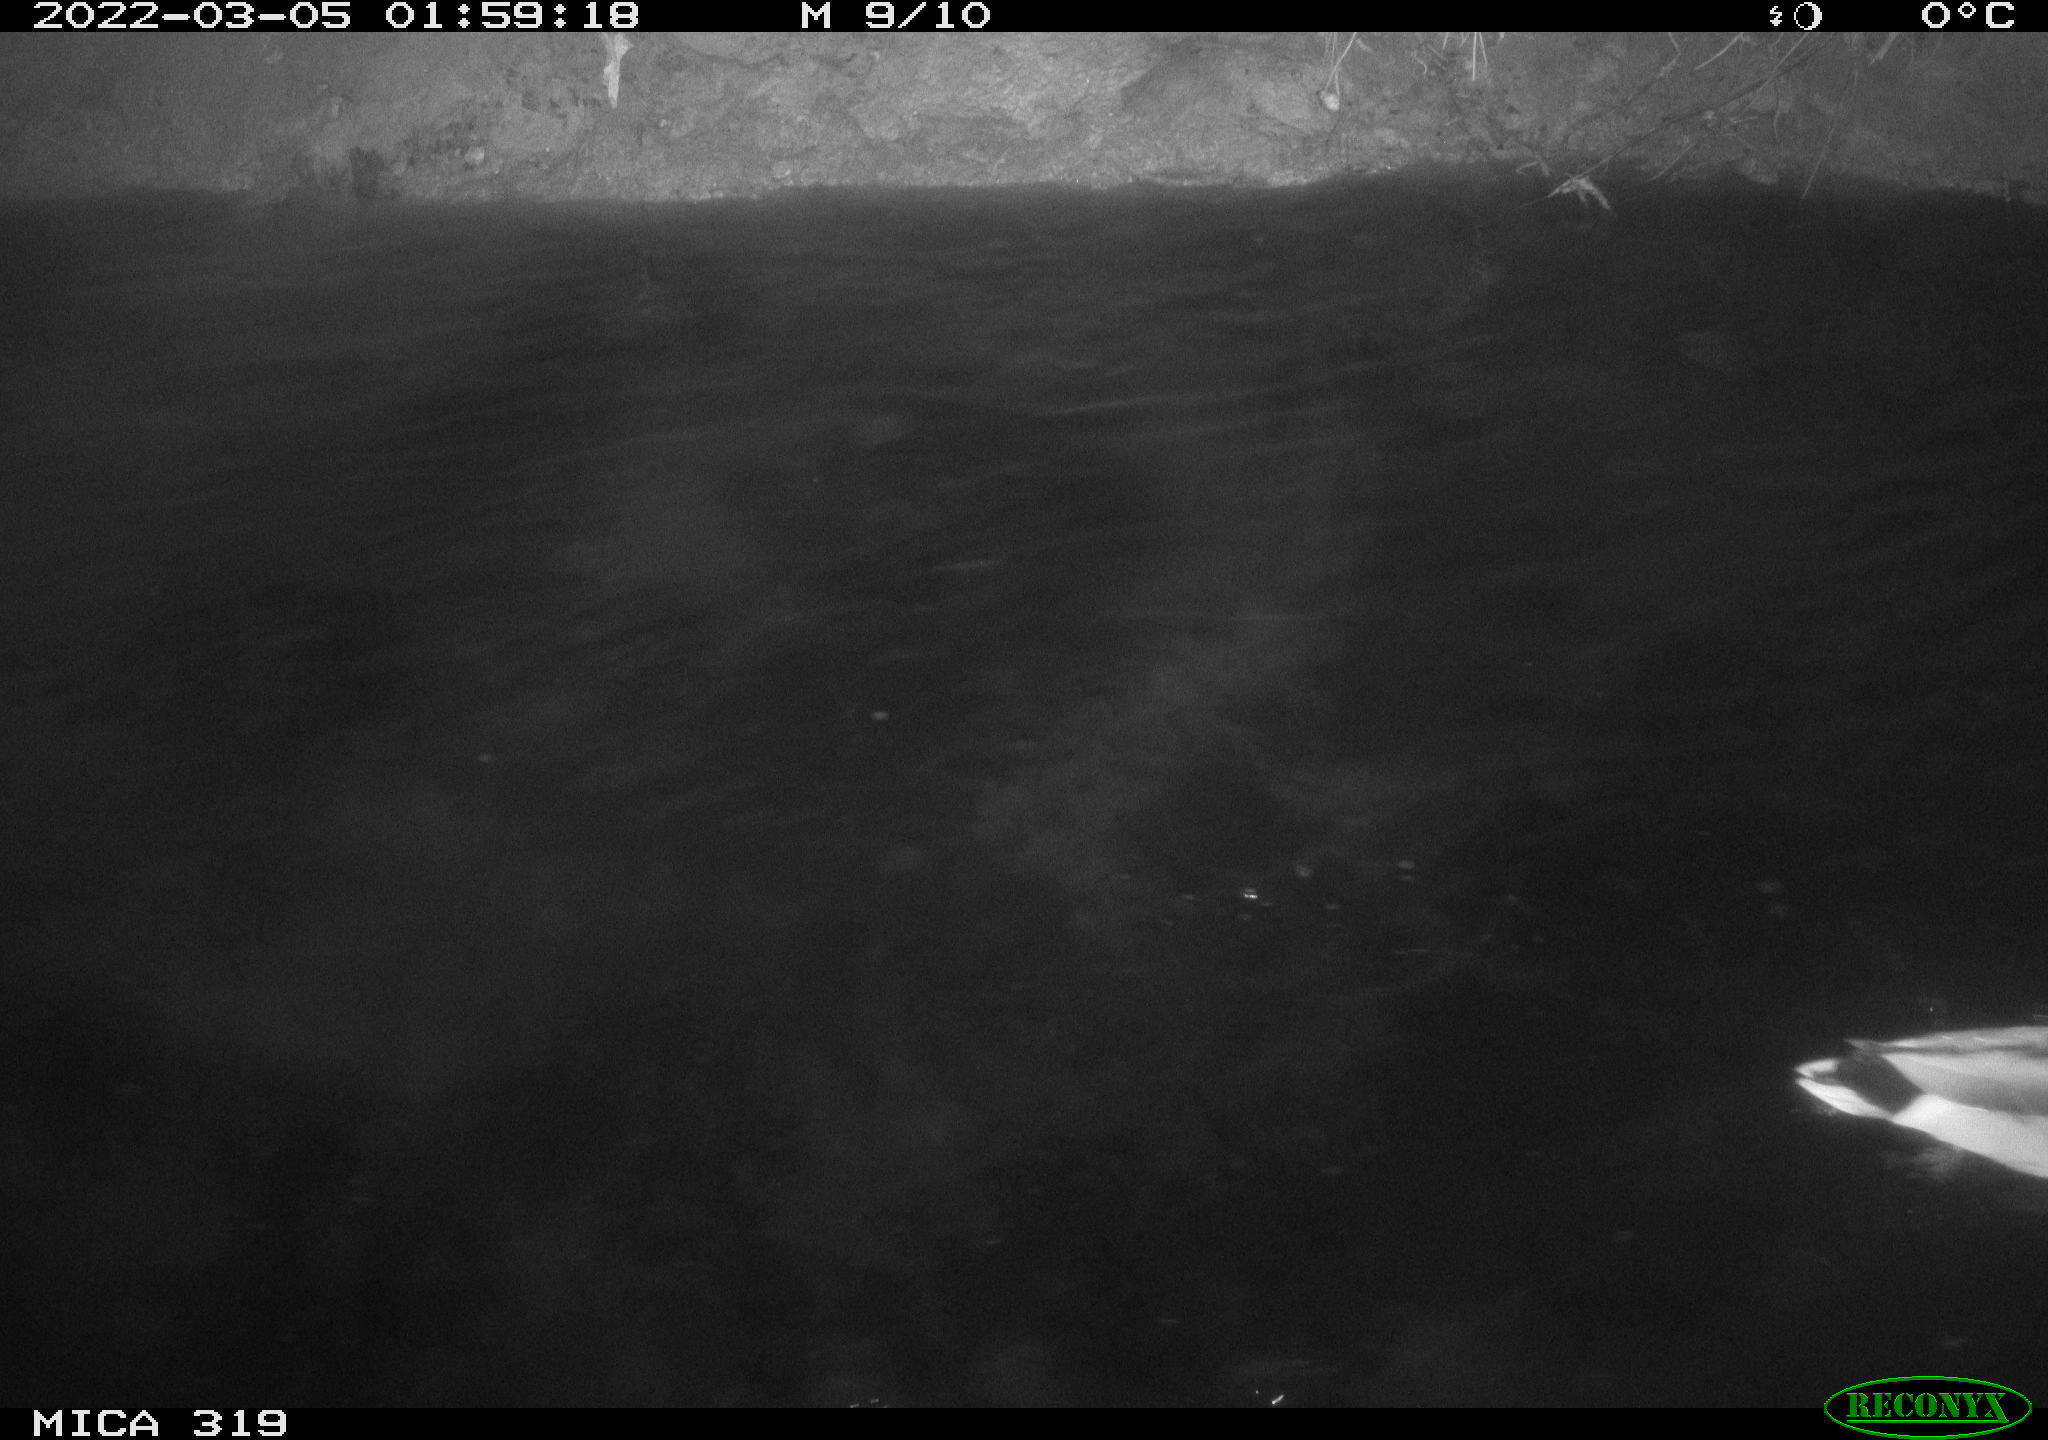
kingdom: Animalia
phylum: Chordata
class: Aves
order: Anseriformes
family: Anatidae
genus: Anas
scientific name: Anas platyrhynchos
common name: Mallard
